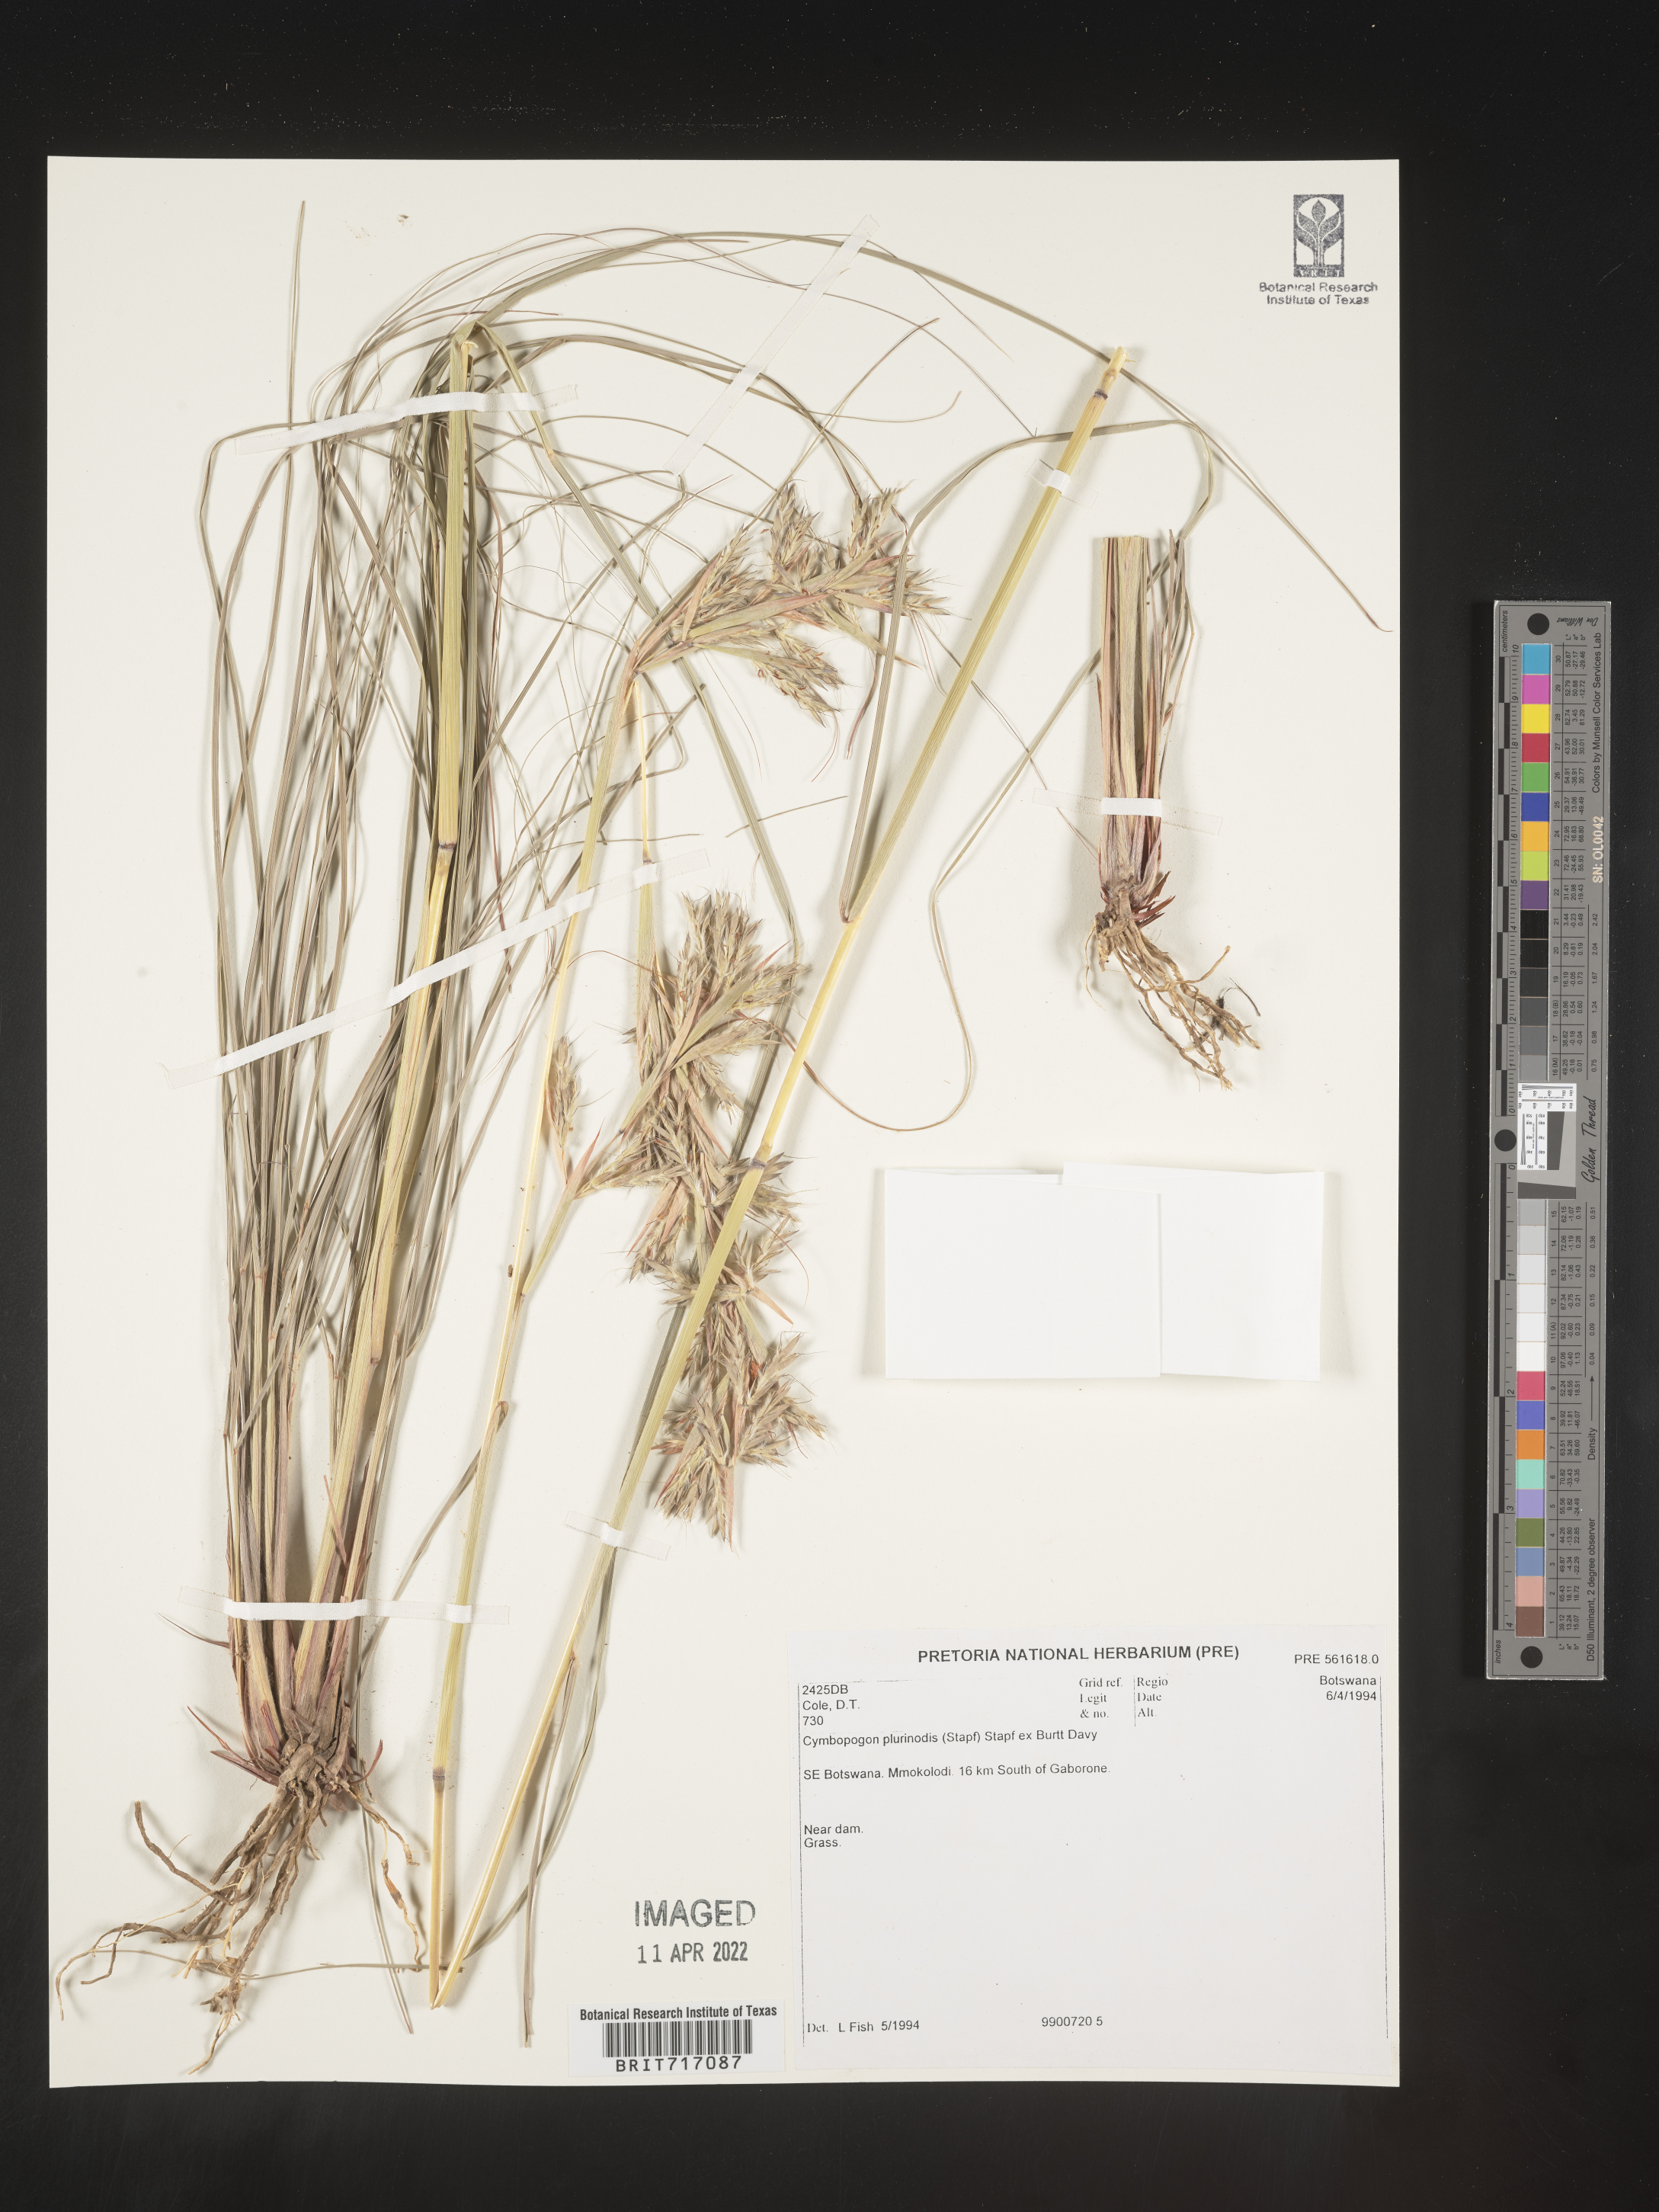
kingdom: Plantae
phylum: Tracheophyta
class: Liliopsida
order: Poales
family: Poaceae
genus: Cymbopogon
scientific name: Cymbopogon
